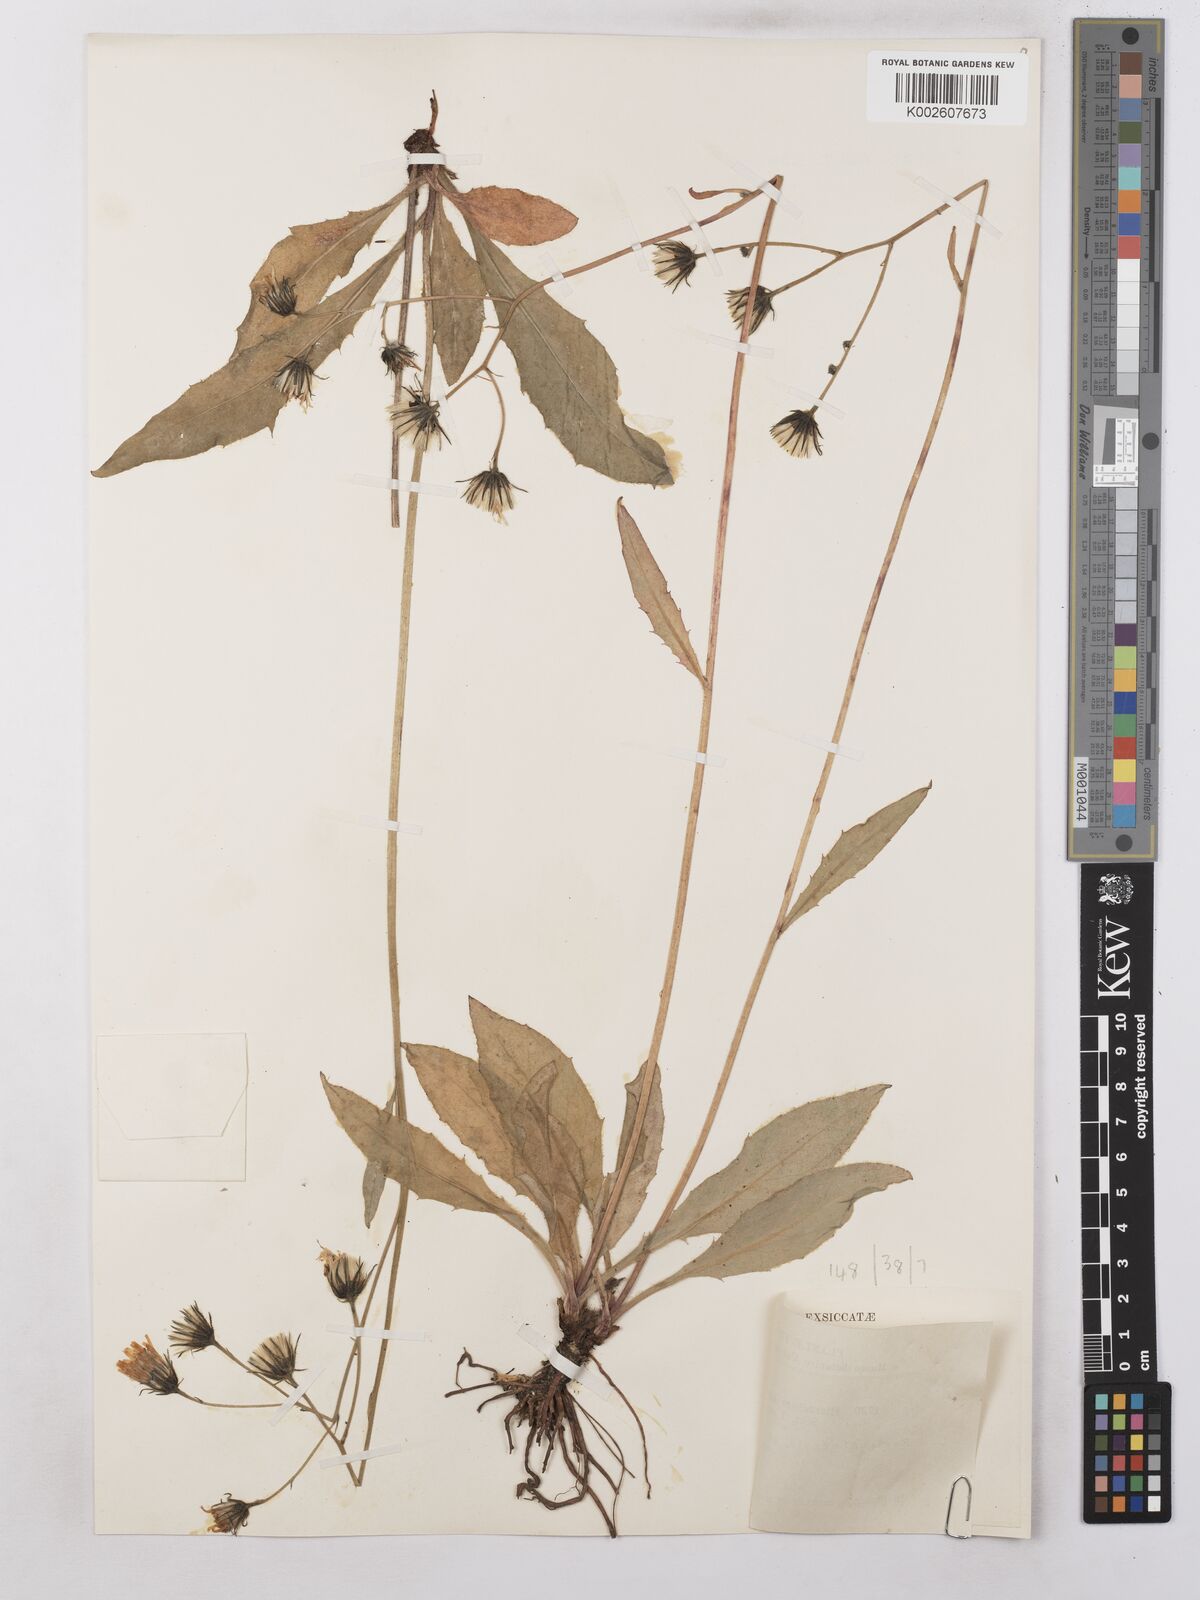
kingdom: Plantae
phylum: Tracheophyta
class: Magnoliopsida
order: Asterales
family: Asteraceae
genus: Hieracium
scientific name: Hieracium subramosum
